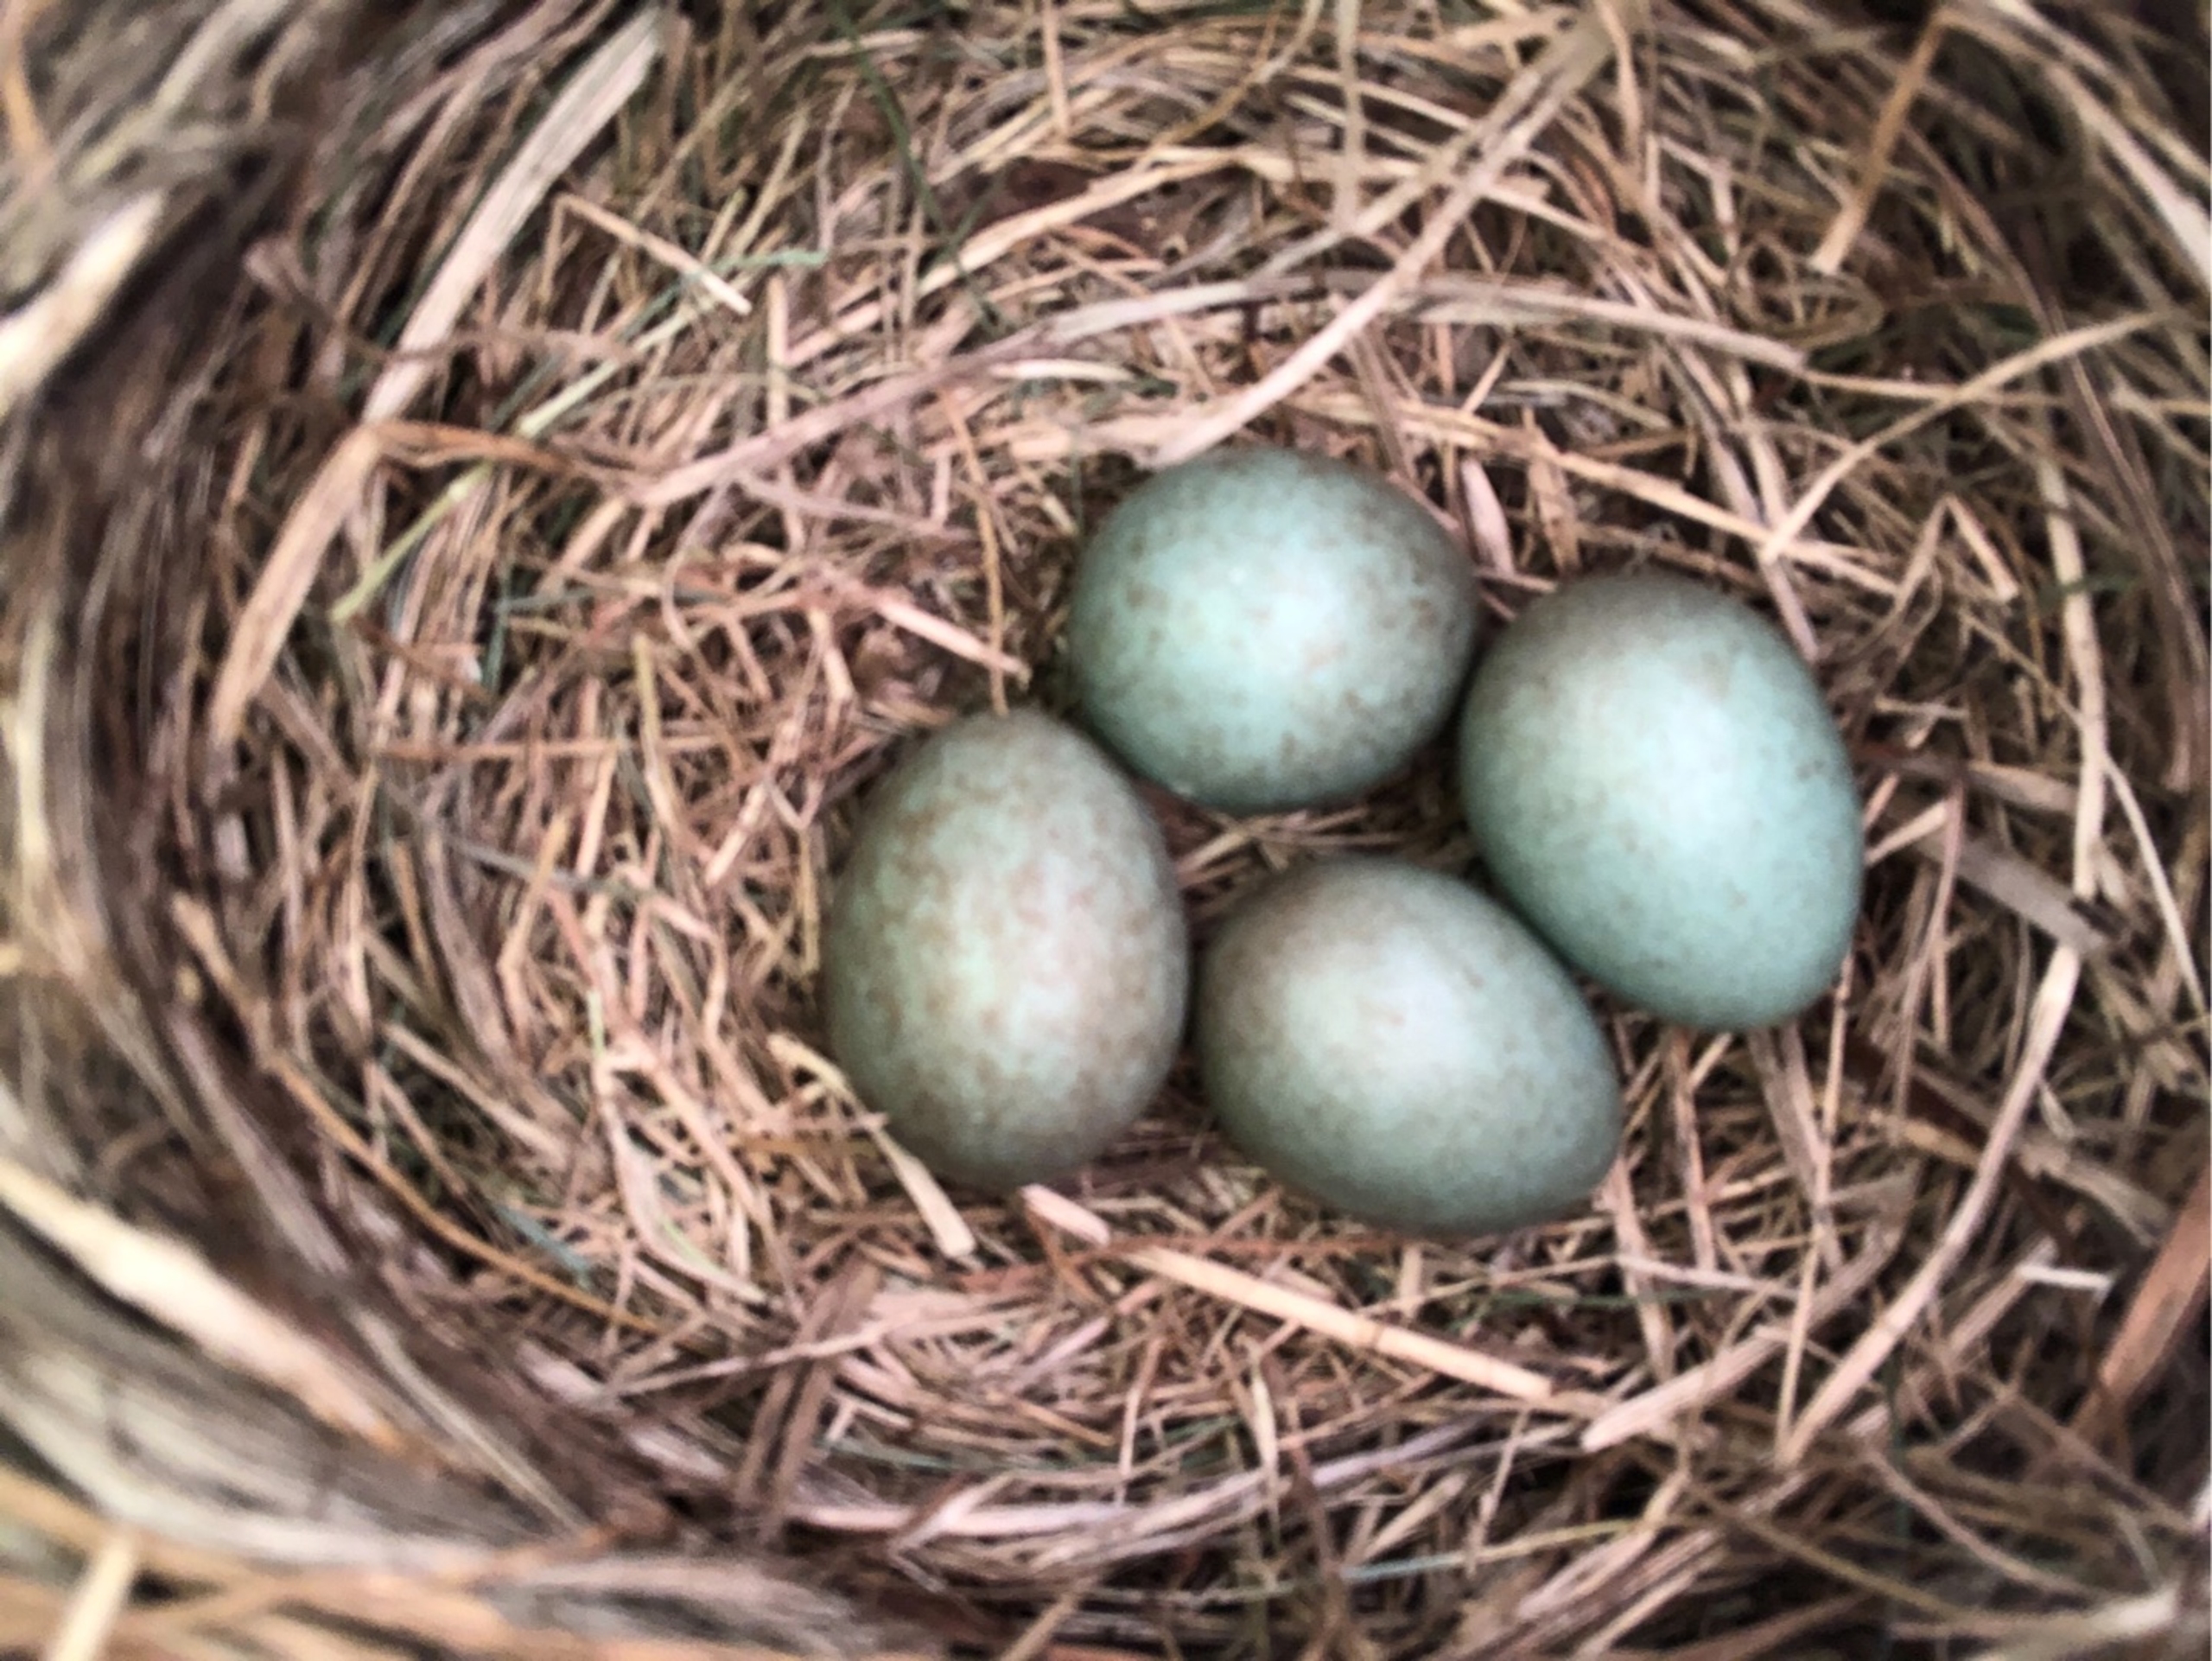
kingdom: Animalia
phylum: Chordata
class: Aves
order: Passeriformes
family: Turdidae
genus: Turdus
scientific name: Turdus merula
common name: Solsort
